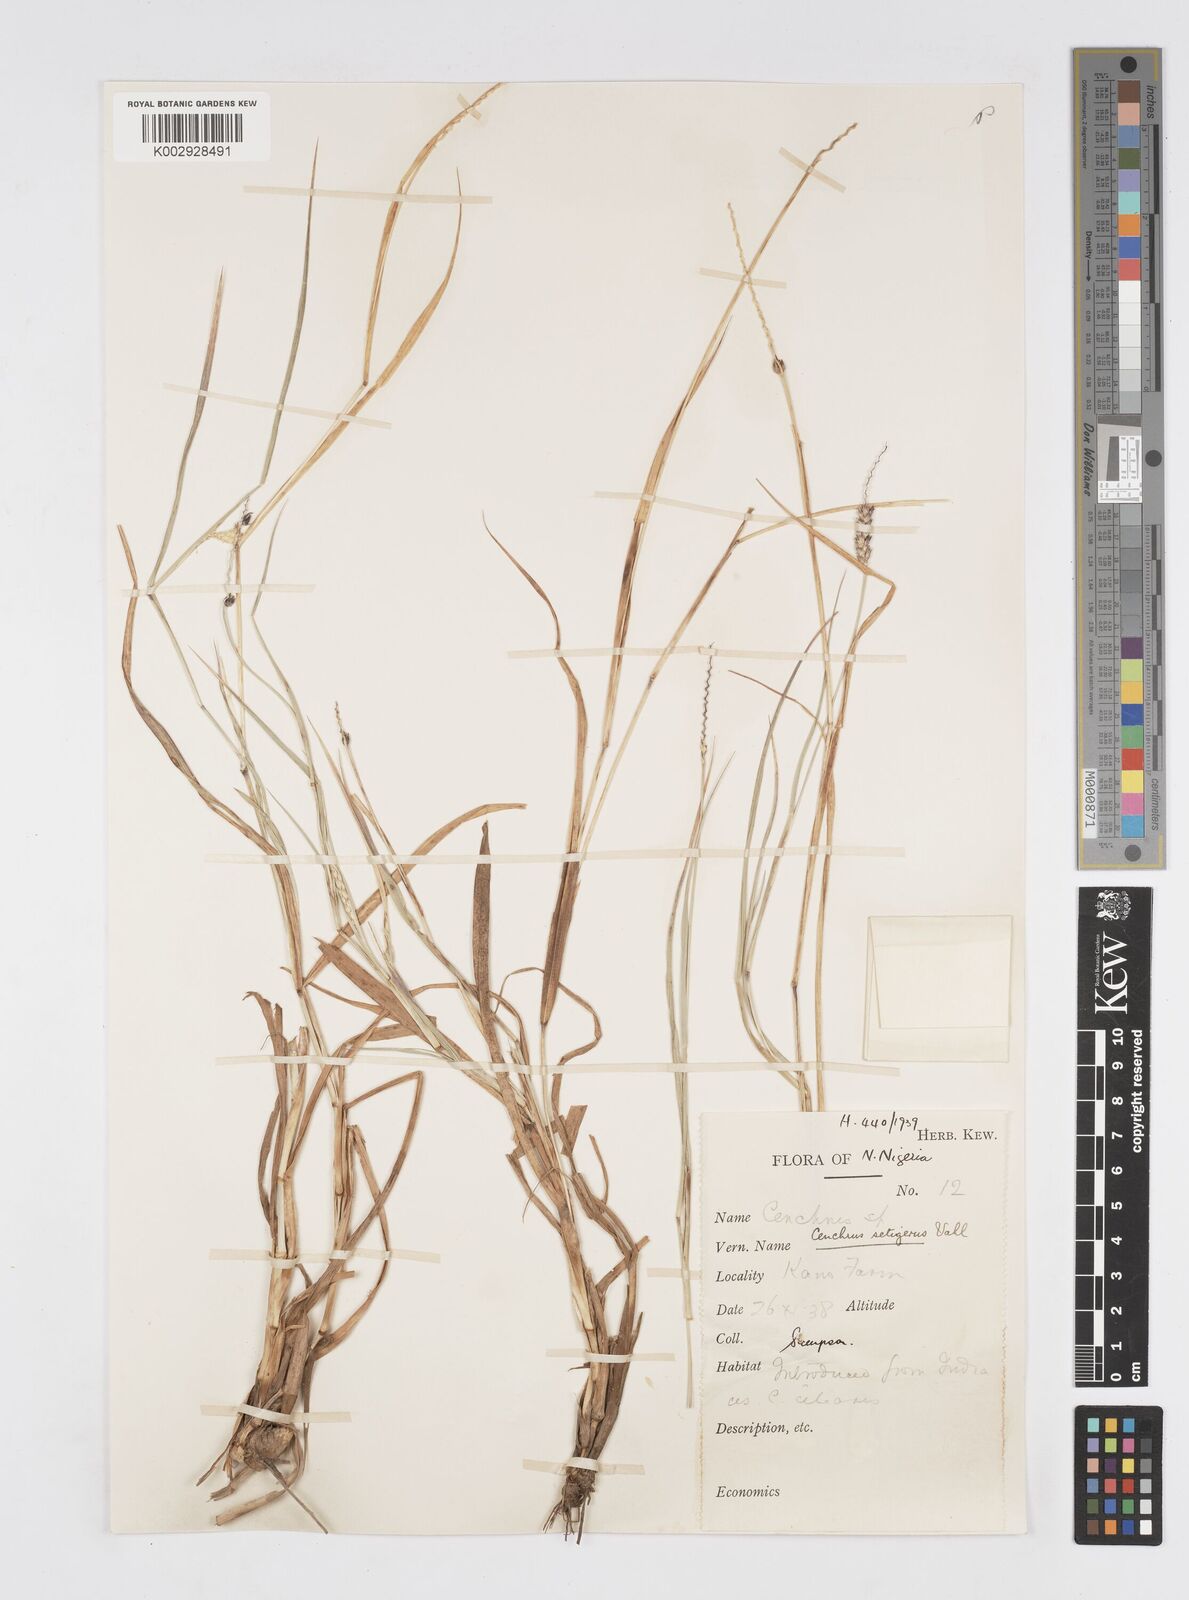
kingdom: Plantae
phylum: Tracheophyta
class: Liliopsida
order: Poales
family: Poaceae
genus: Cenchrus
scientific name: Cenchrus setigerus
